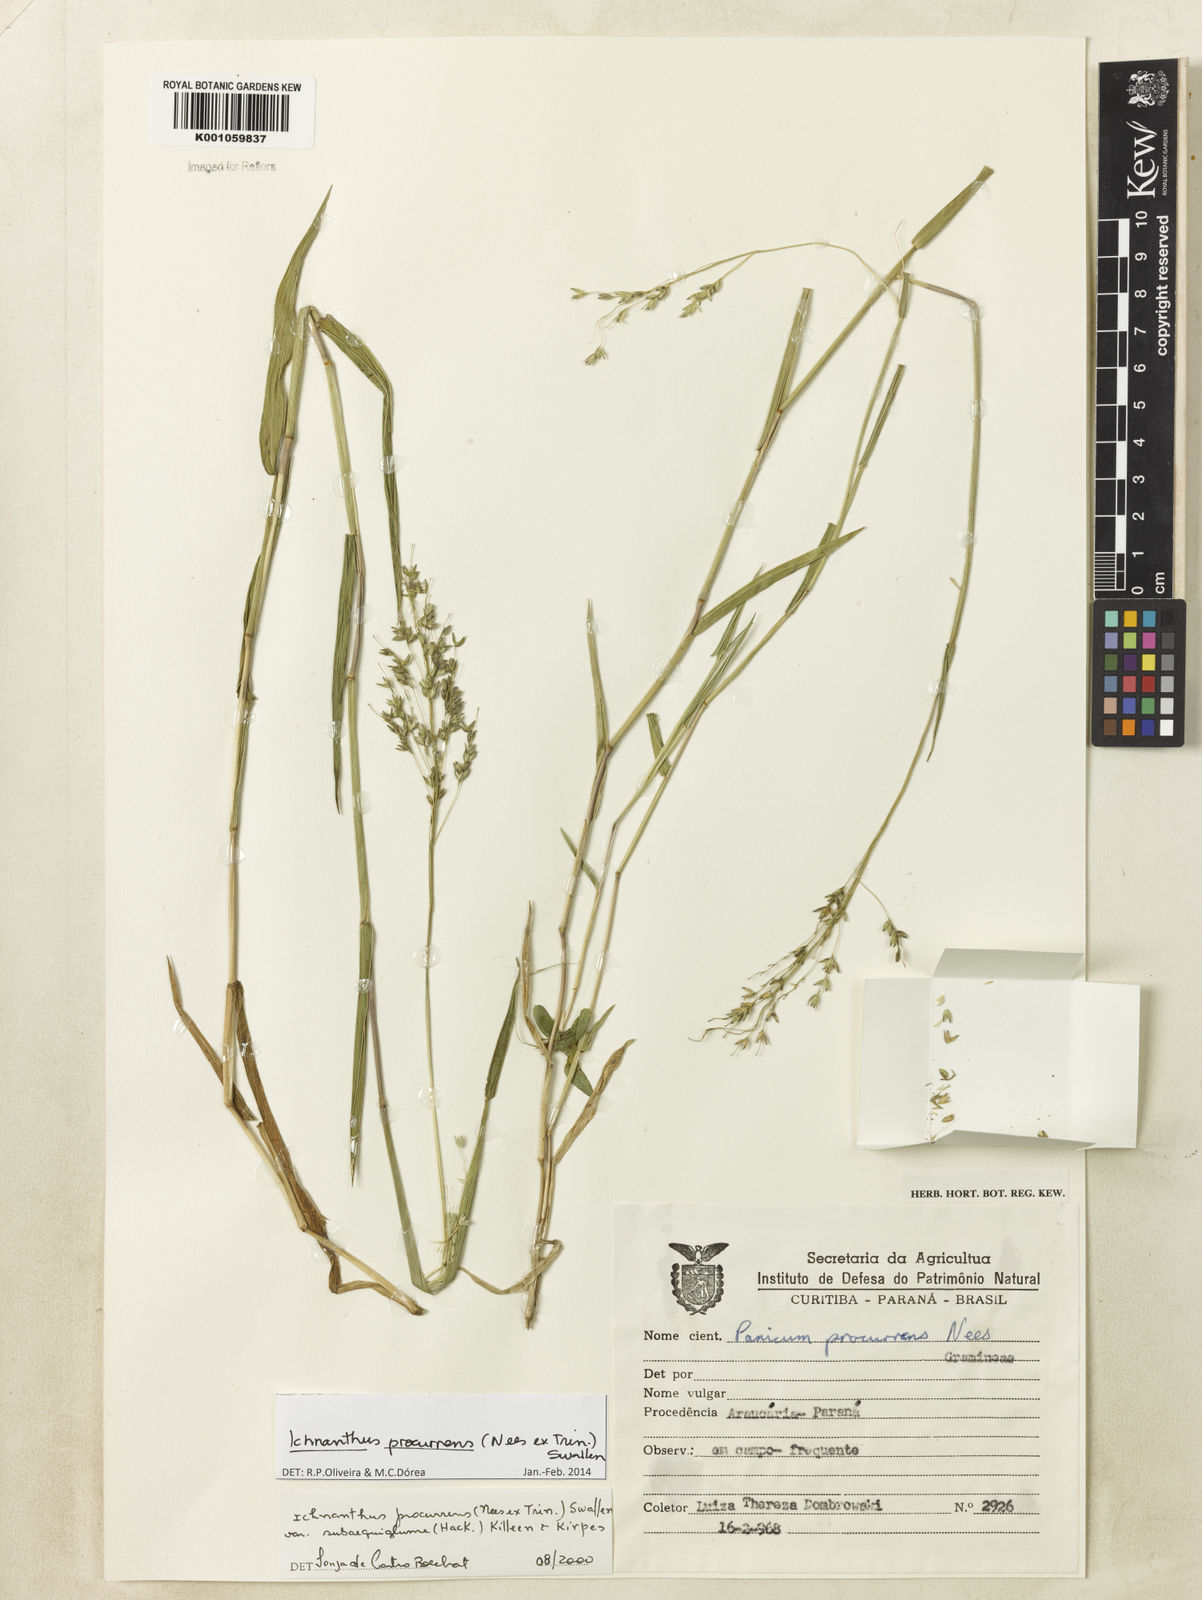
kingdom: Plantae
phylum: Tracheophyta
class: Liliopsida
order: Poales
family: Poaceae
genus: Oedochloa
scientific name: Oedochloa procurrens
